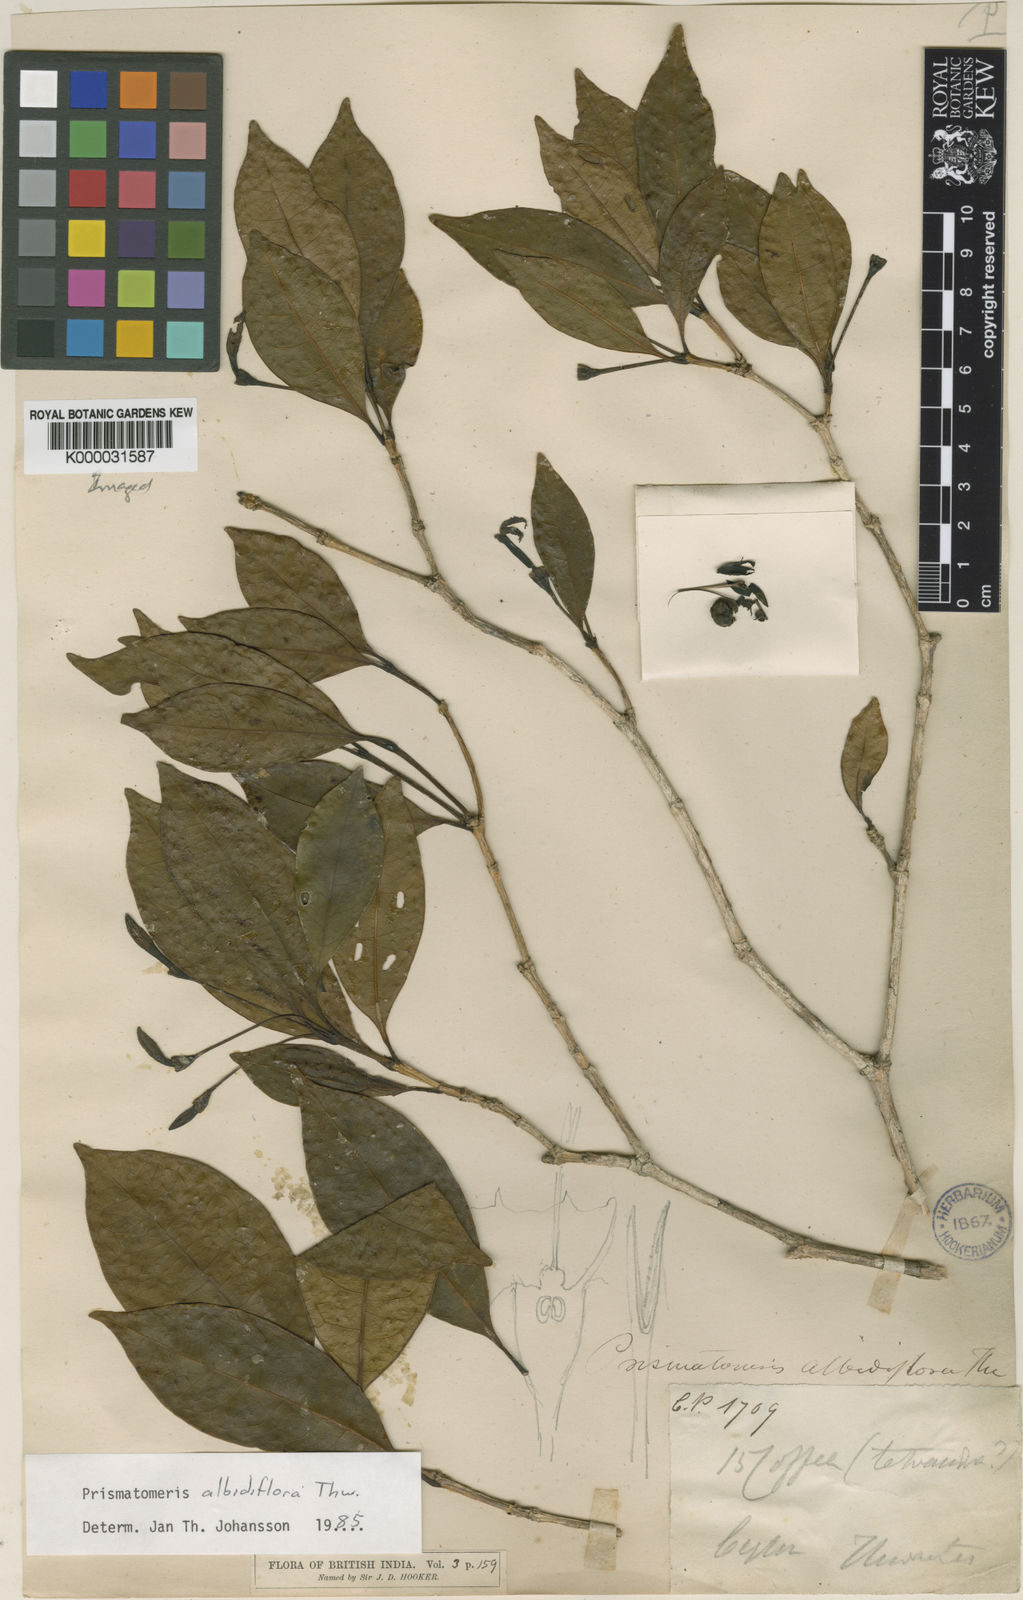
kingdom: Plantae
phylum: Tracheophyta
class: Magnoliopsida
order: Gentianales
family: Rubiaceae
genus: Prismatomeris
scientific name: Prismatomeris tetrandra
